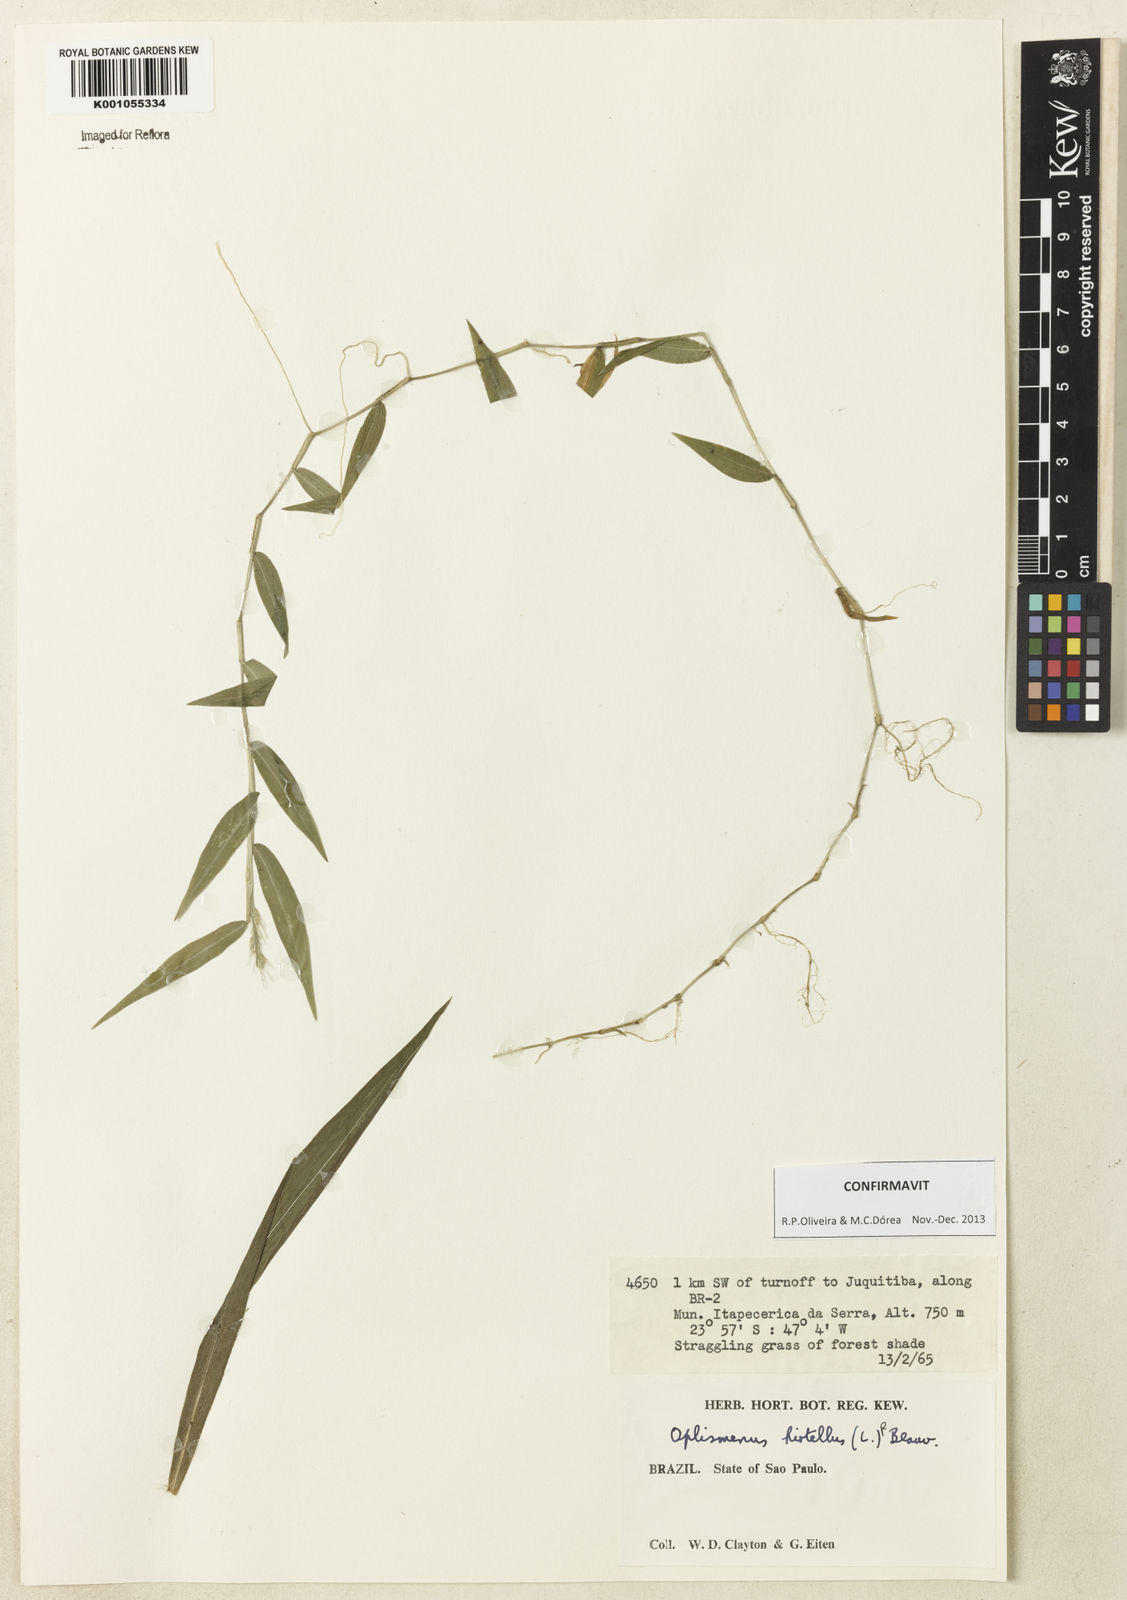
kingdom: Plantae
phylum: Tracheophyta
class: Liliopsida
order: Poales
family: Poaceae
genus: Oplismenus
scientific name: Oplismenus hirtellus
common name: Basketgrass
